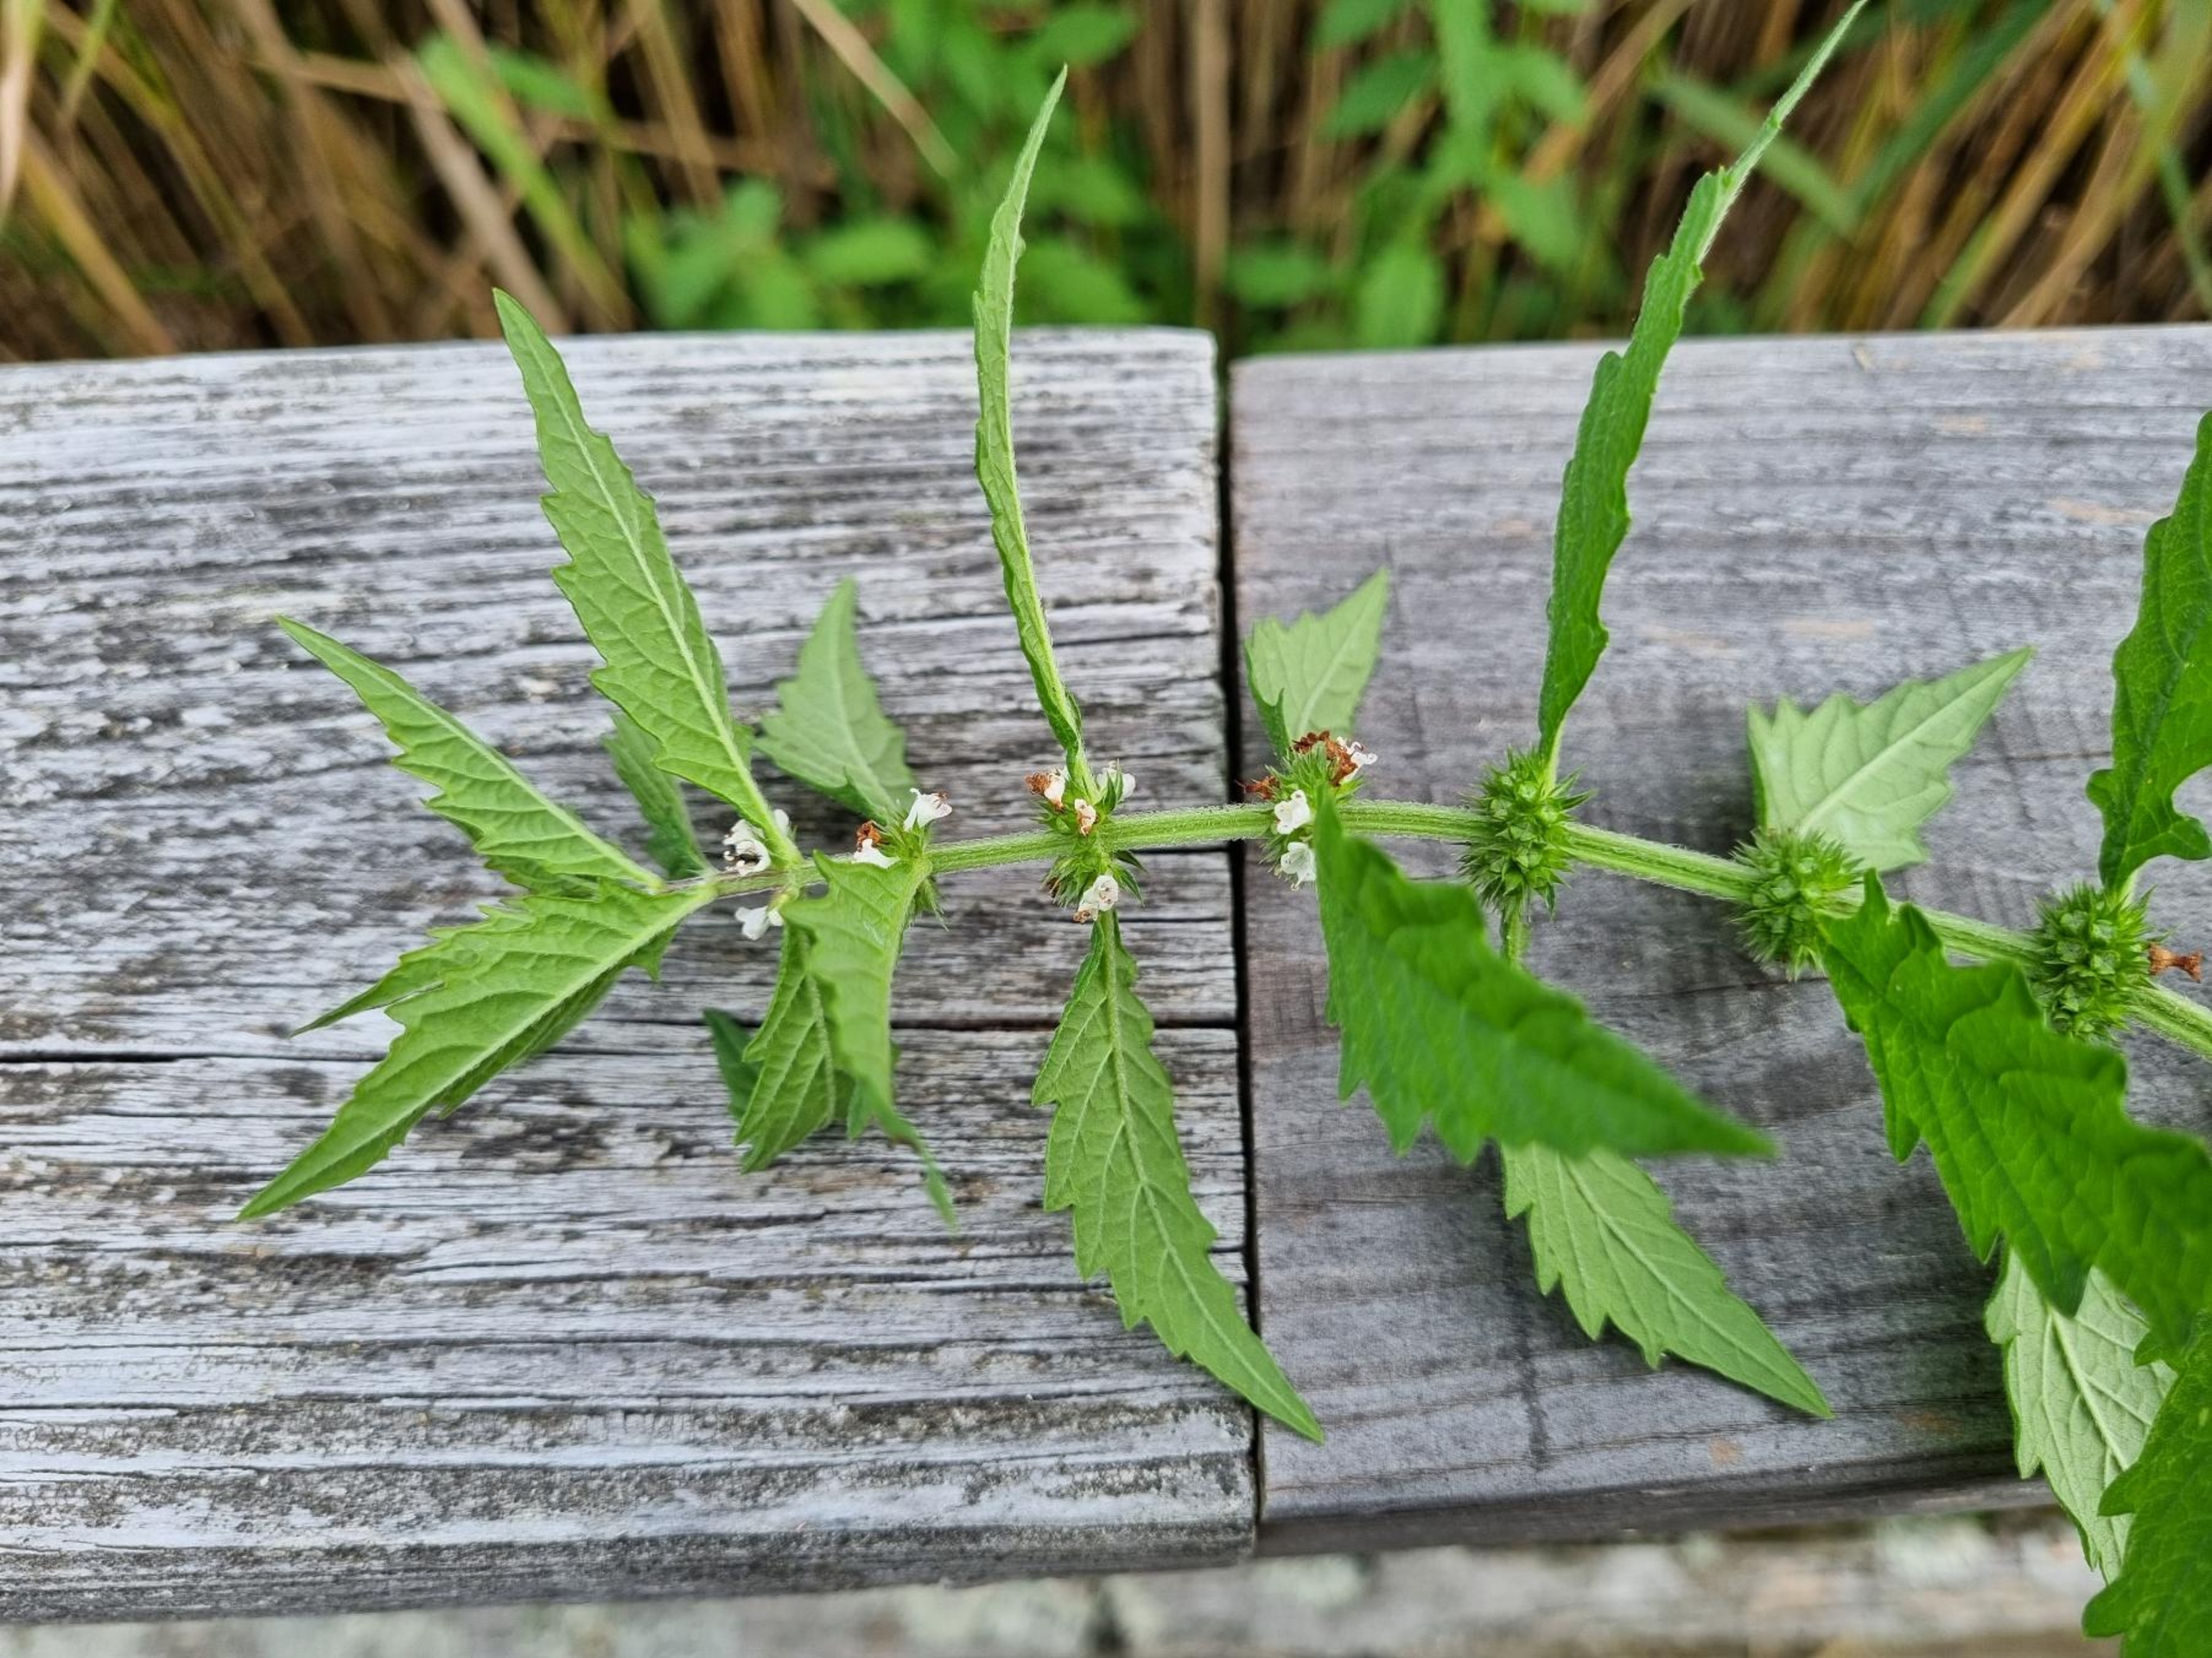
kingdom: Plantae
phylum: Tracheophyta
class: Magnoliopsida
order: Lamiales
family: Lamiaceae
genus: Lycopus
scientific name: Lycopus europaeus
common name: Sværtevæld
